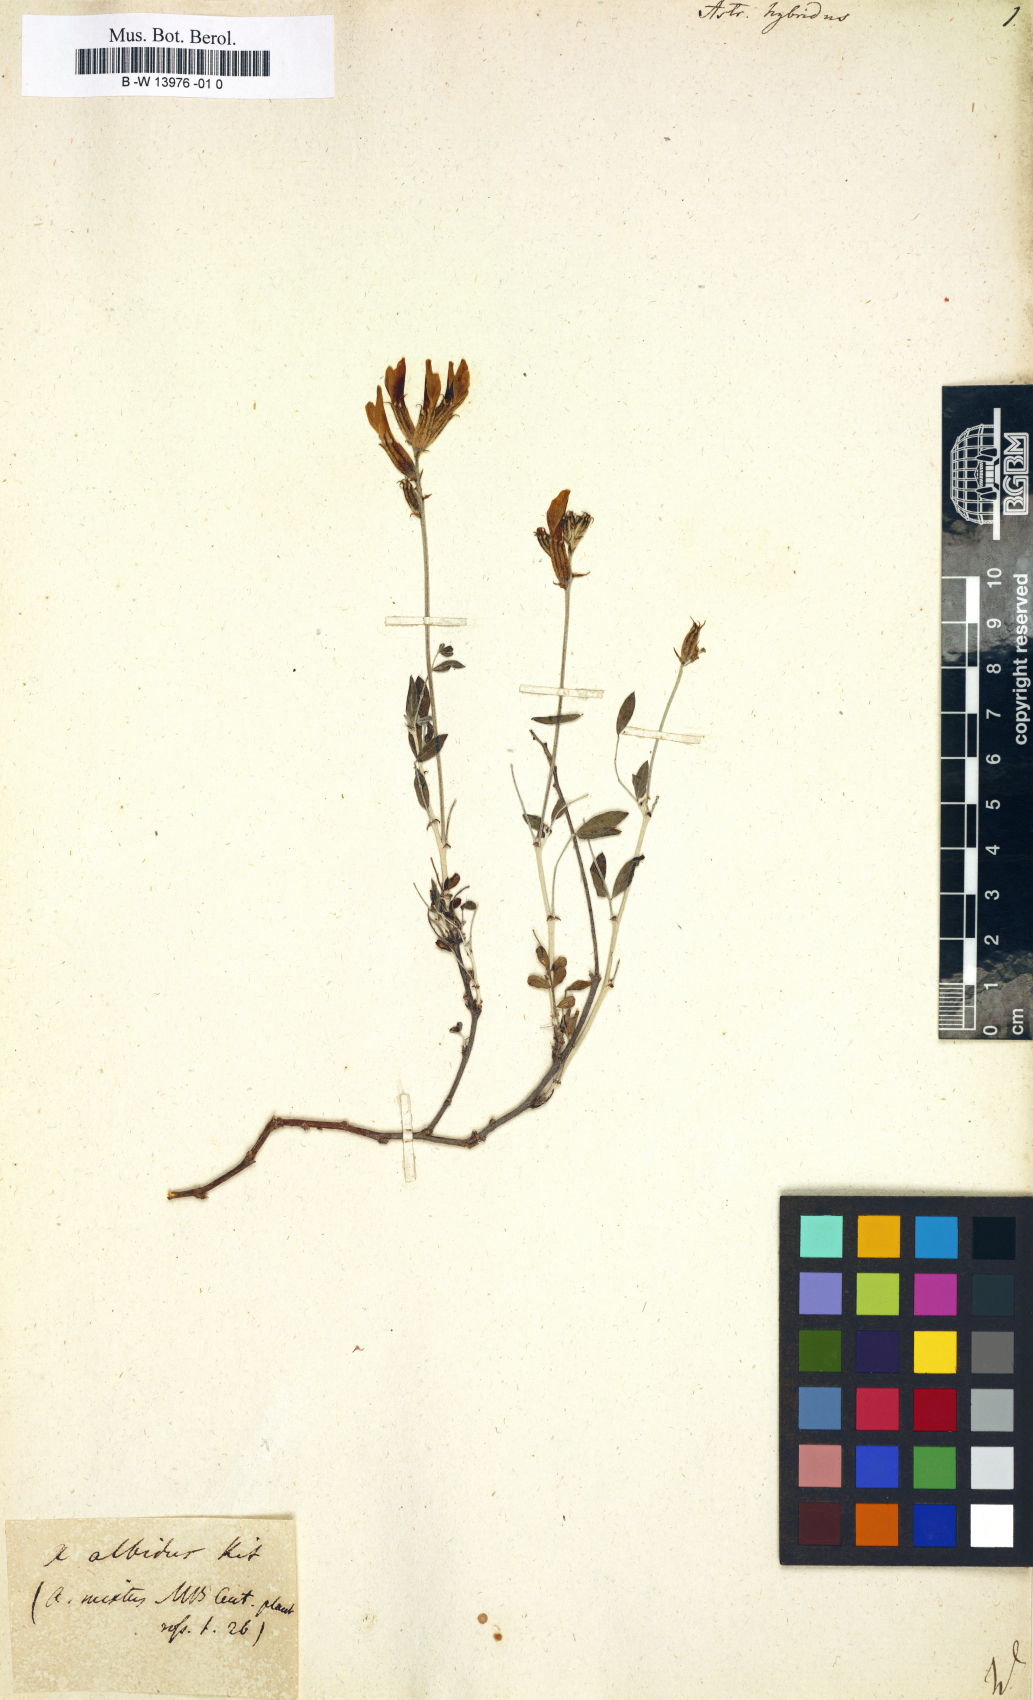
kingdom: Plantae
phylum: Tracheophyta
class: Magnoliopsida
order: Fabales
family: Fabaceae
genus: Astragalus
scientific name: Astragalus hybridus
